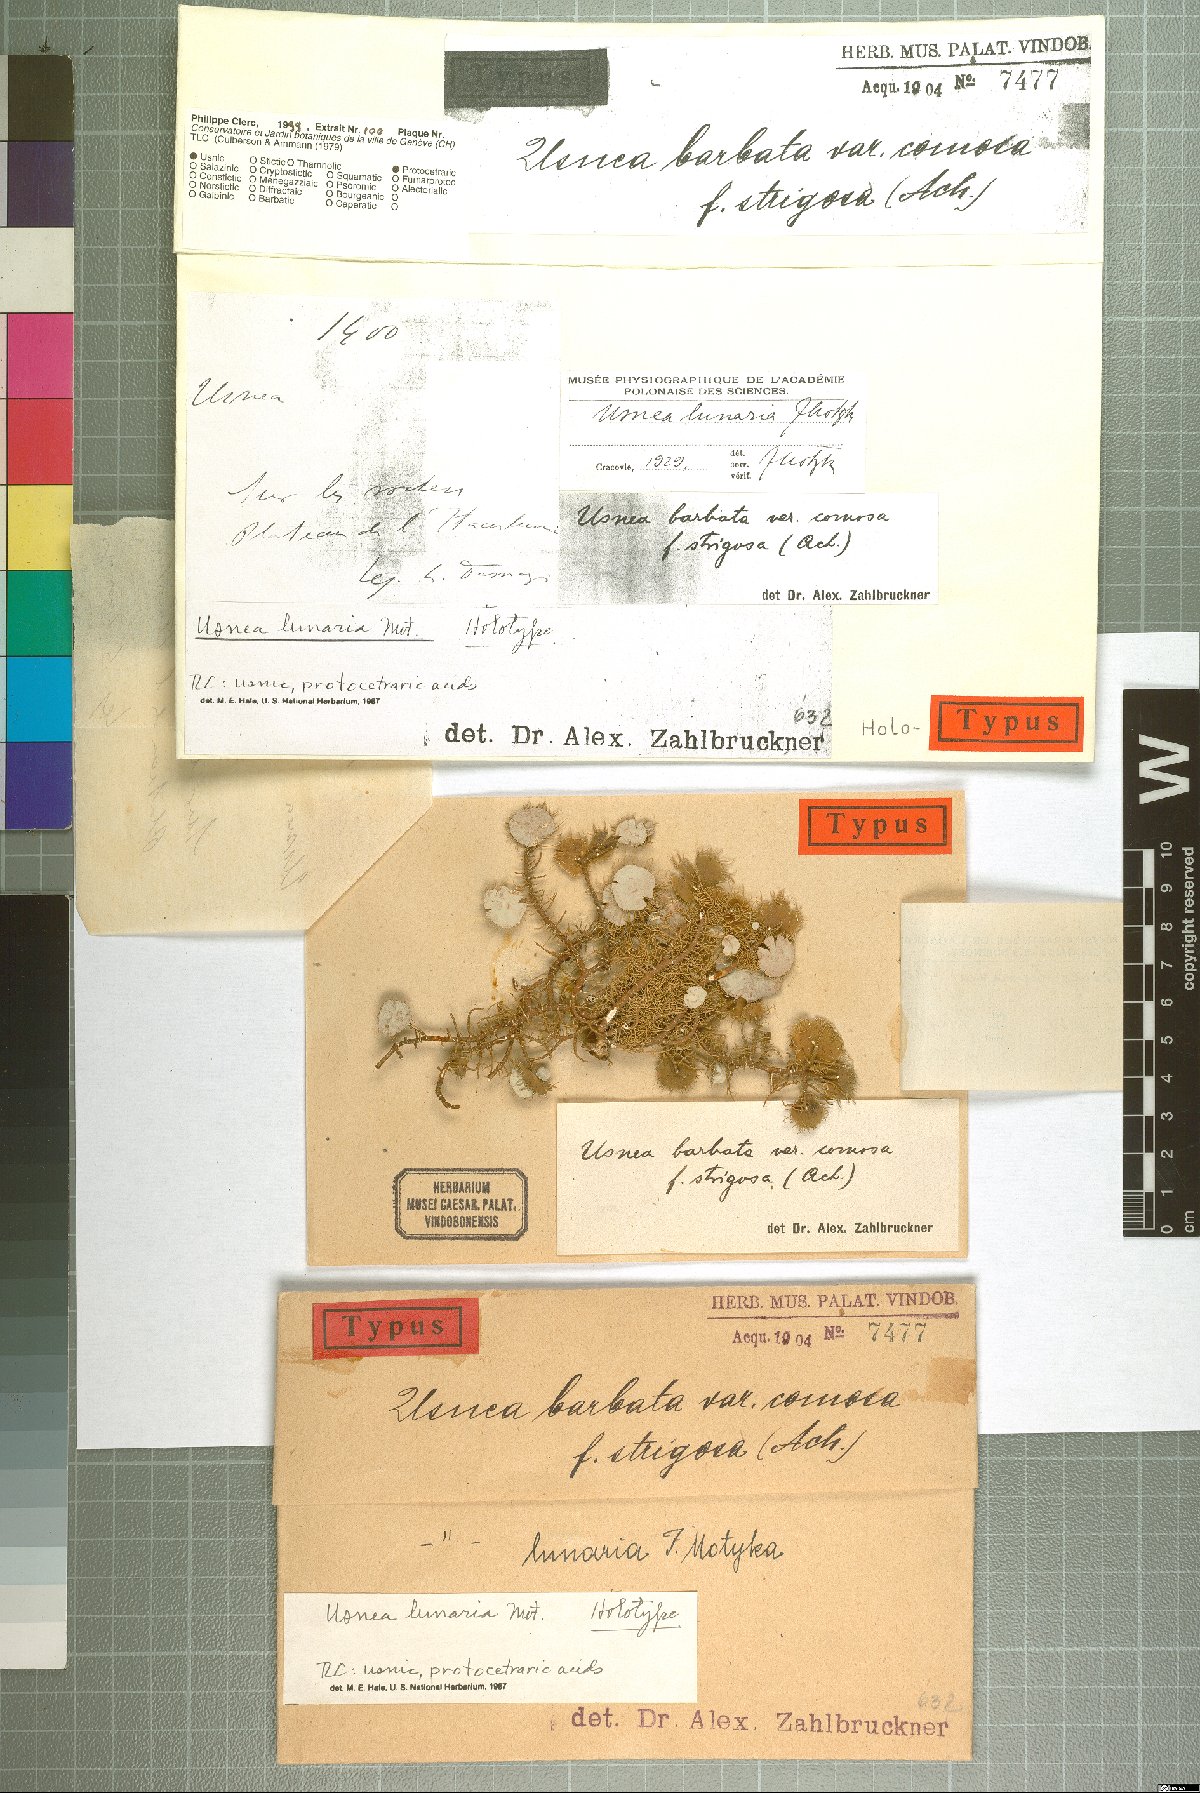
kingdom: Fungi
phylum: Ascomycota
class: Lecanoromycetes
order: Lecanorales
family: Parmeliaceae
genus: Usnea
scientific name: Usnea
